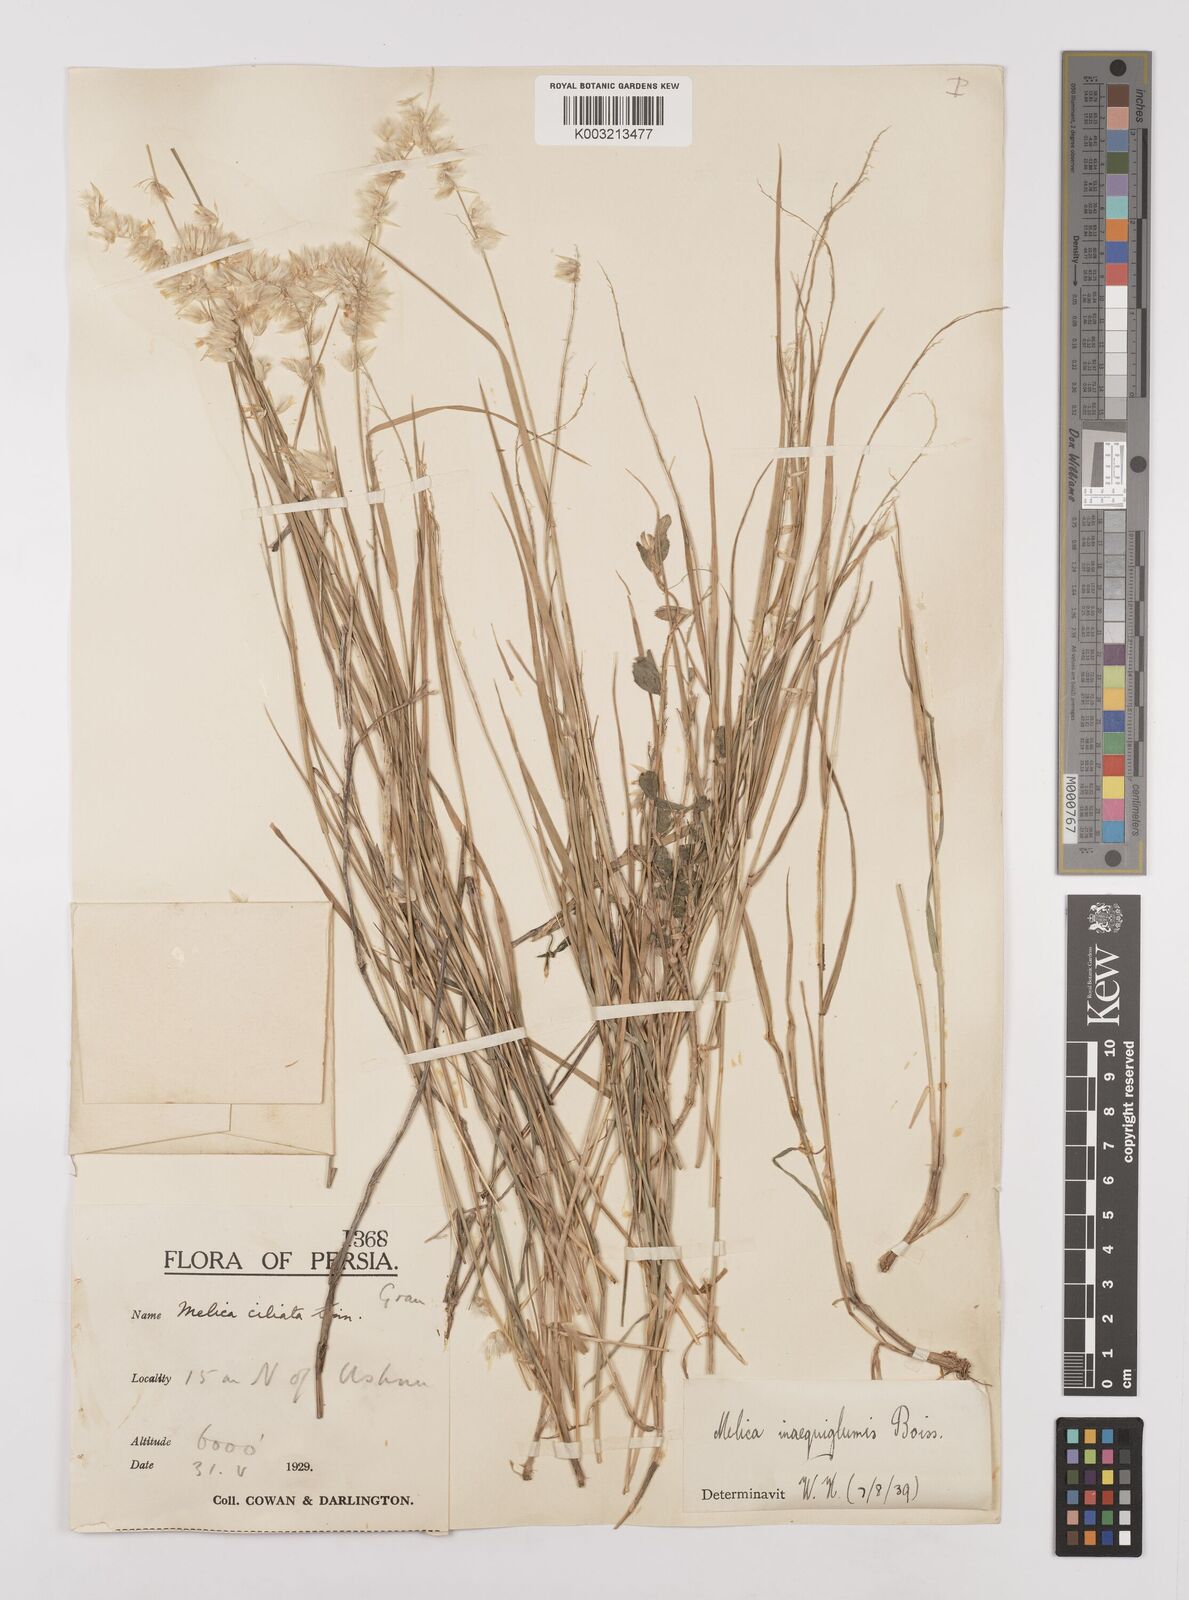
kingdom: Plantae
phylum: Tracheophyta
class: Liliopsida
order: Poales
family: Poaceae
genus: Melica
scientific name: Melica persica
